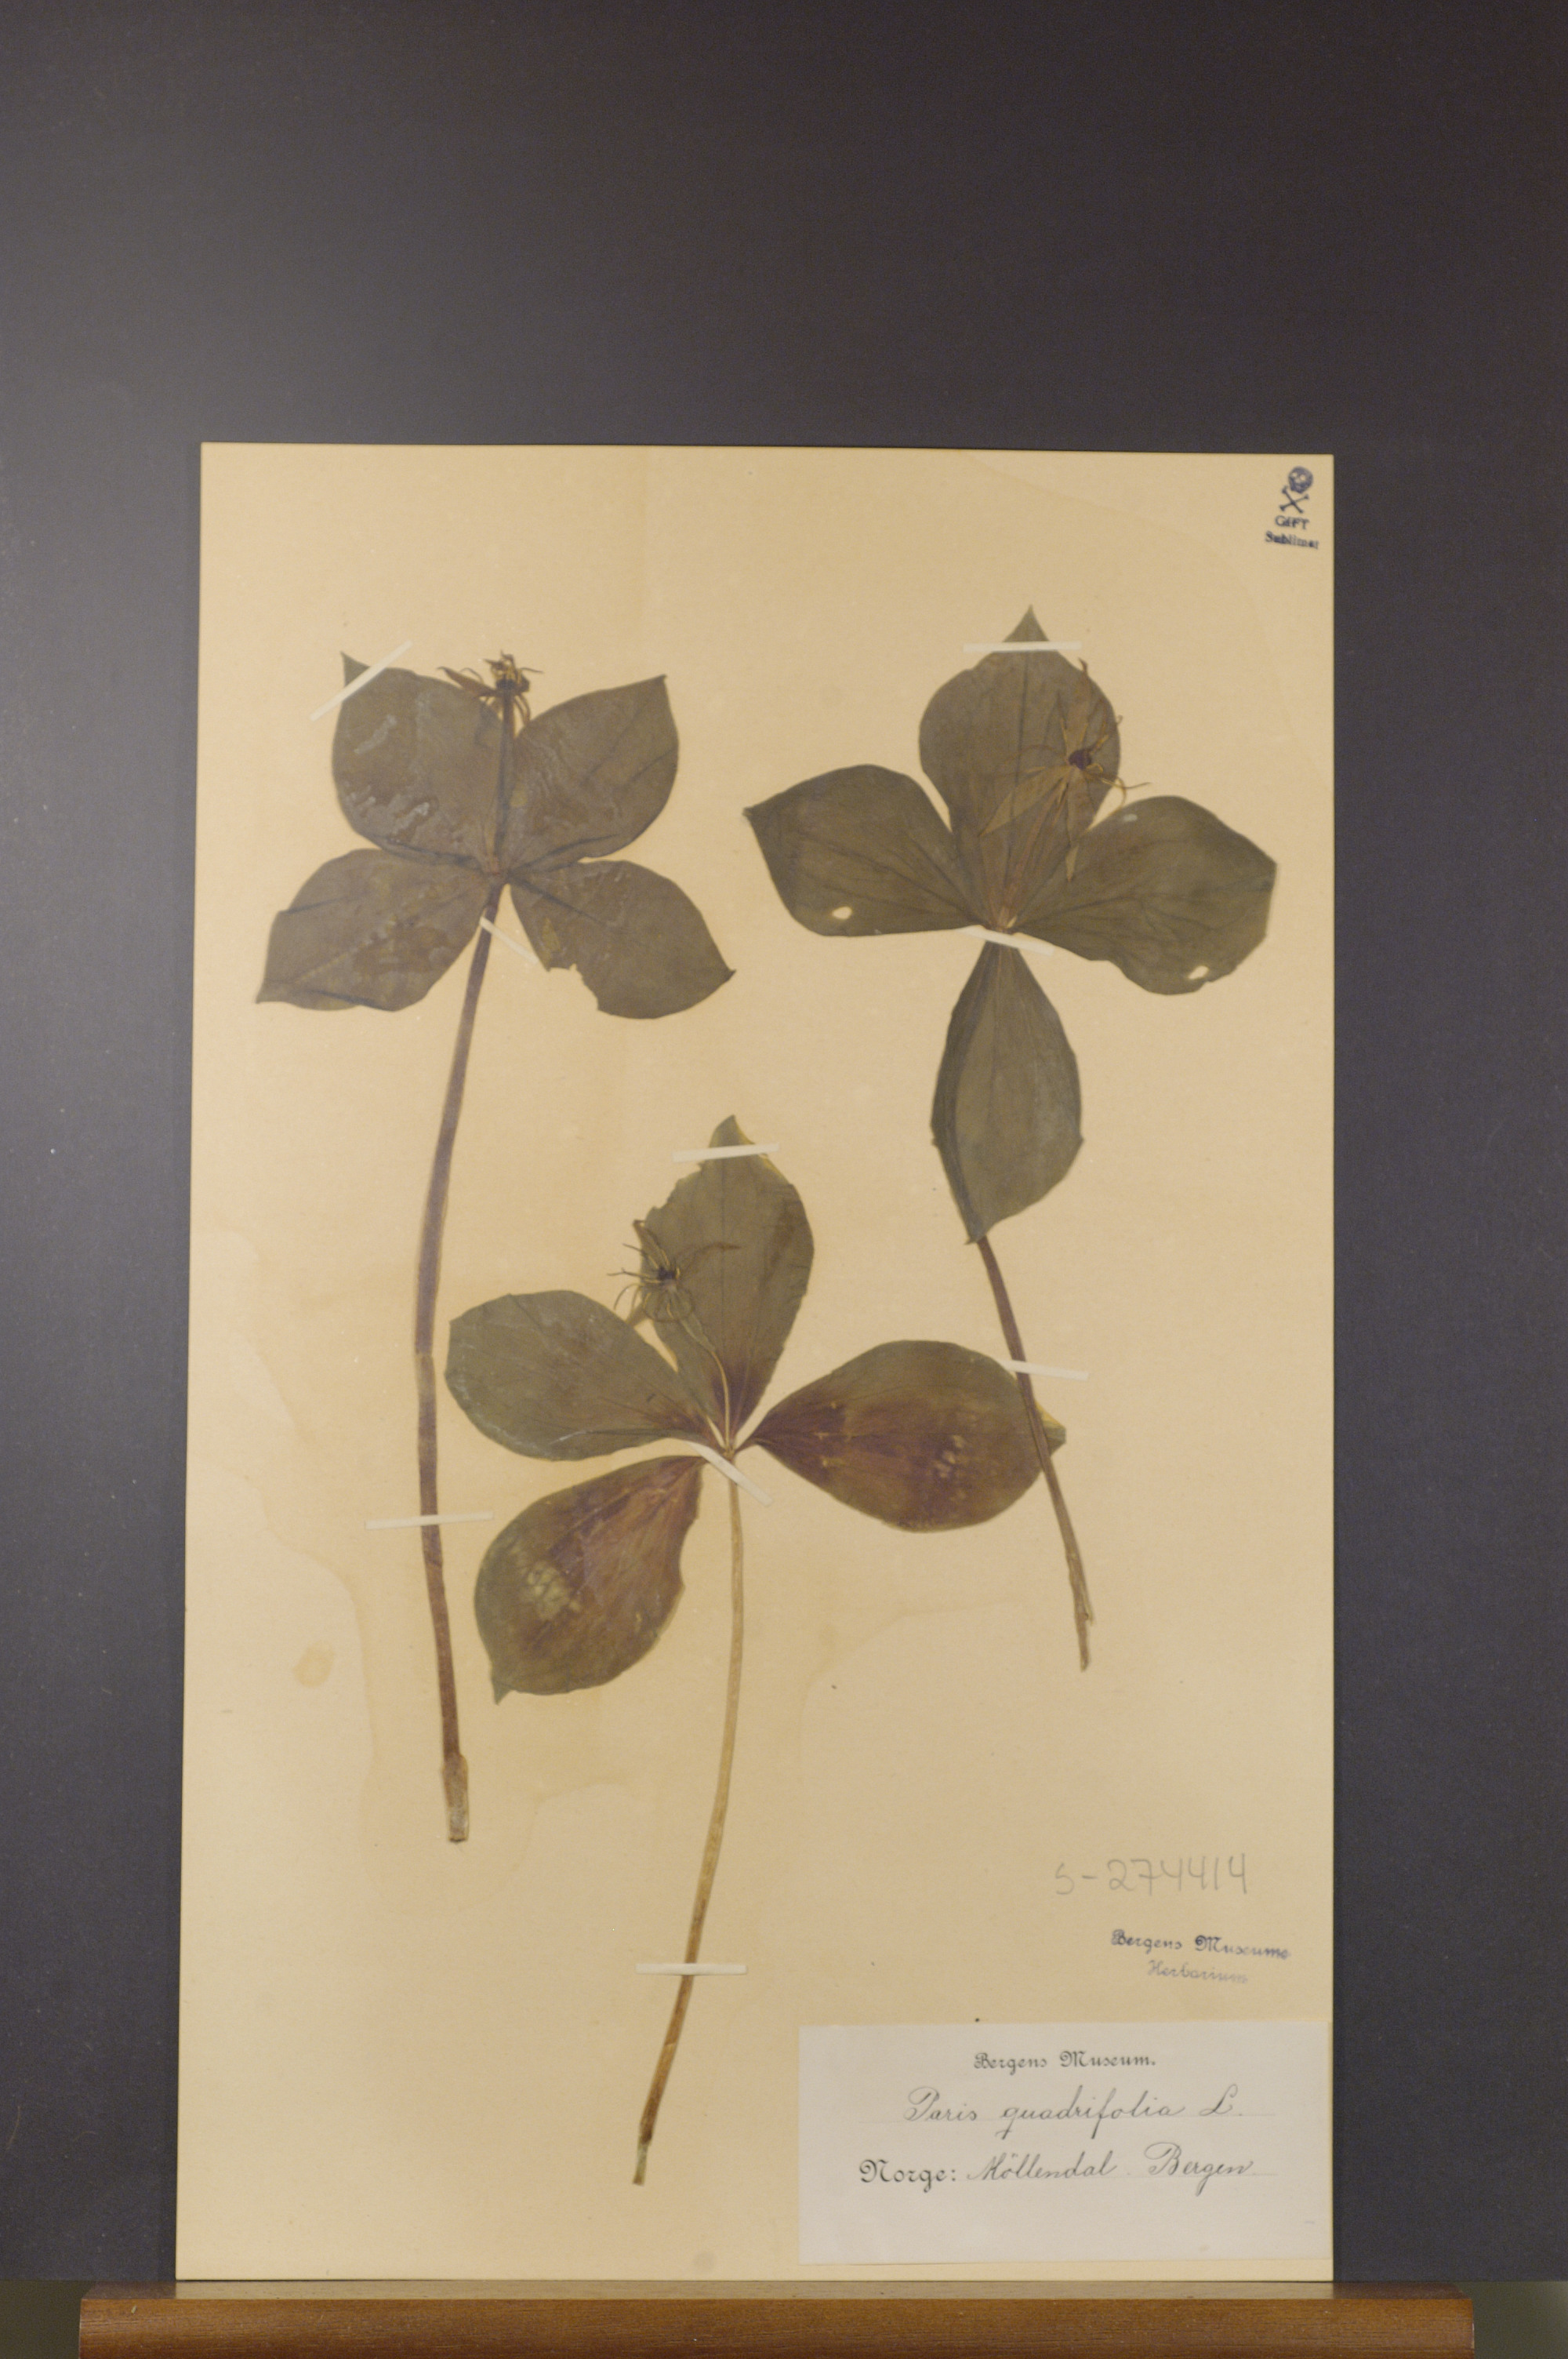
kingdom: Plantae
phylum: Tracheophyta
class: Liliopsida
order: Liliales
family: Melanthiaceae
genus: Paris
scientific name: Paris quadrifolia
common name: Herb-paris
